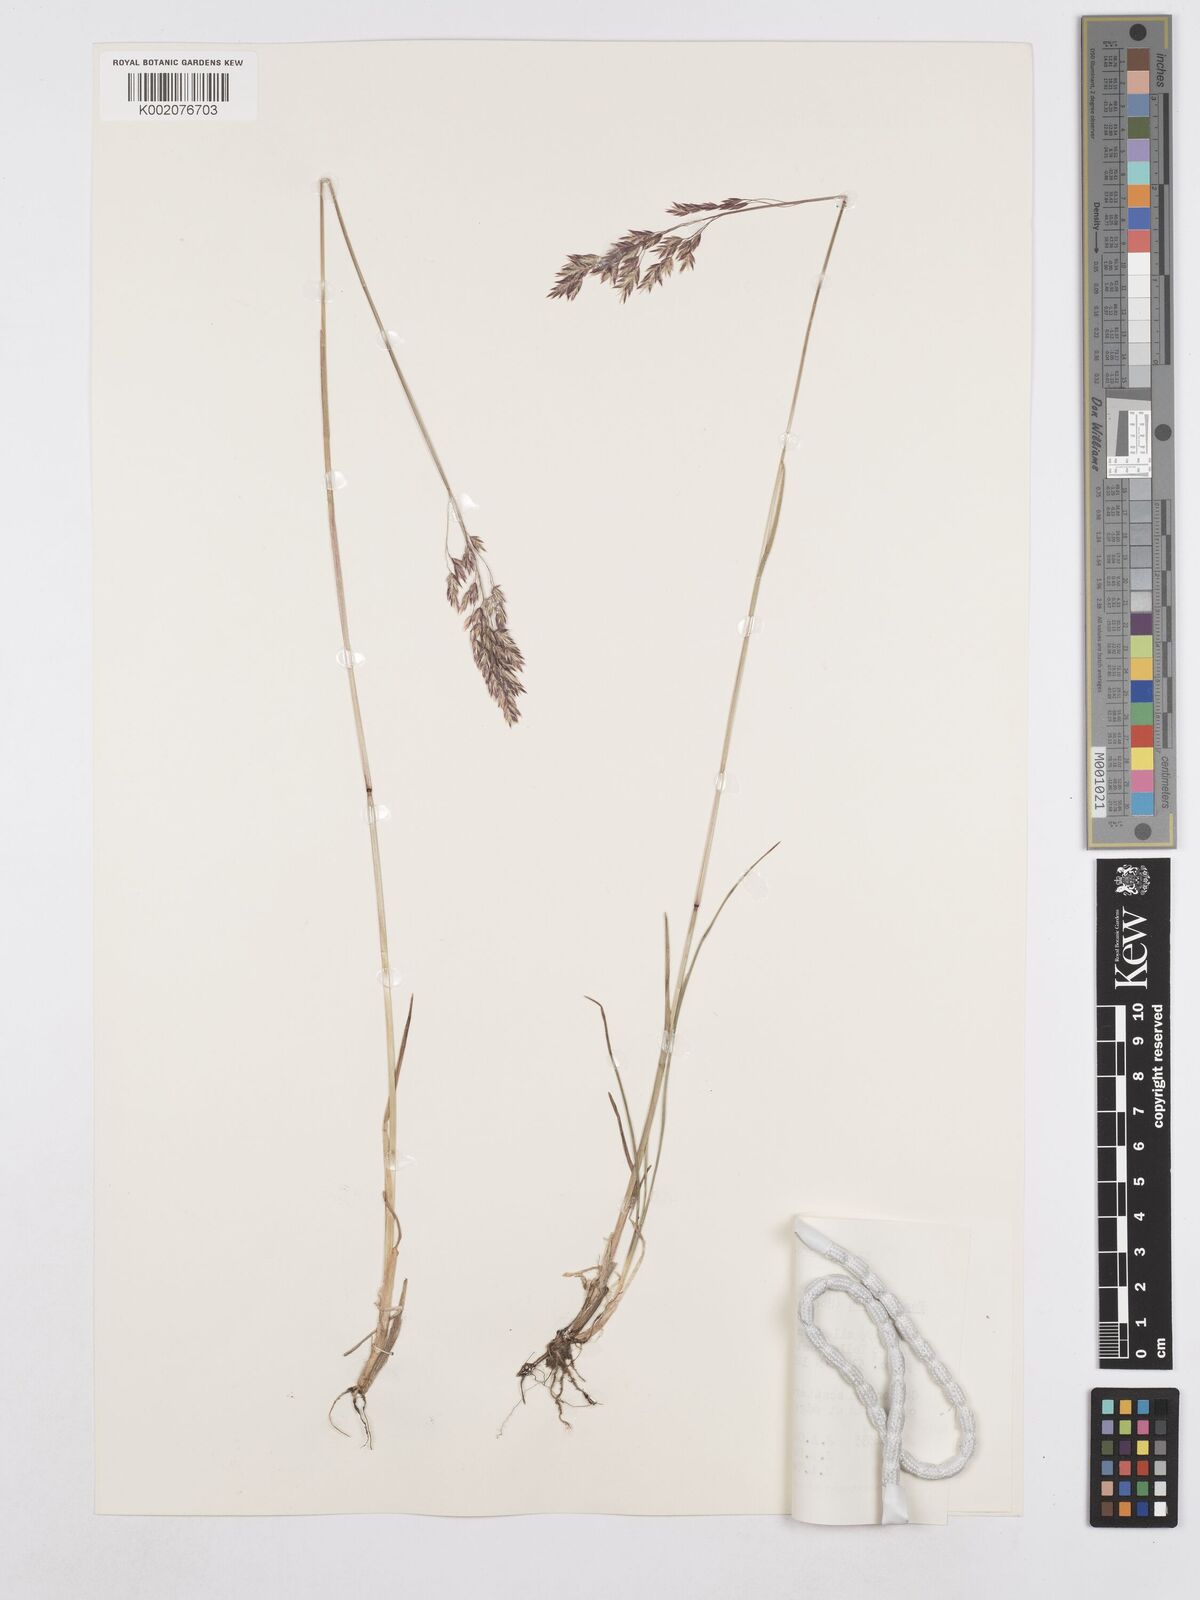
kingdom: Plantae
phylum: Tracheophyta
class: Liliopsida
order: Poales
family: Poaceae
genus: Poa
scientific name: Poa nervosa
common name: Hooker's bluegrass
